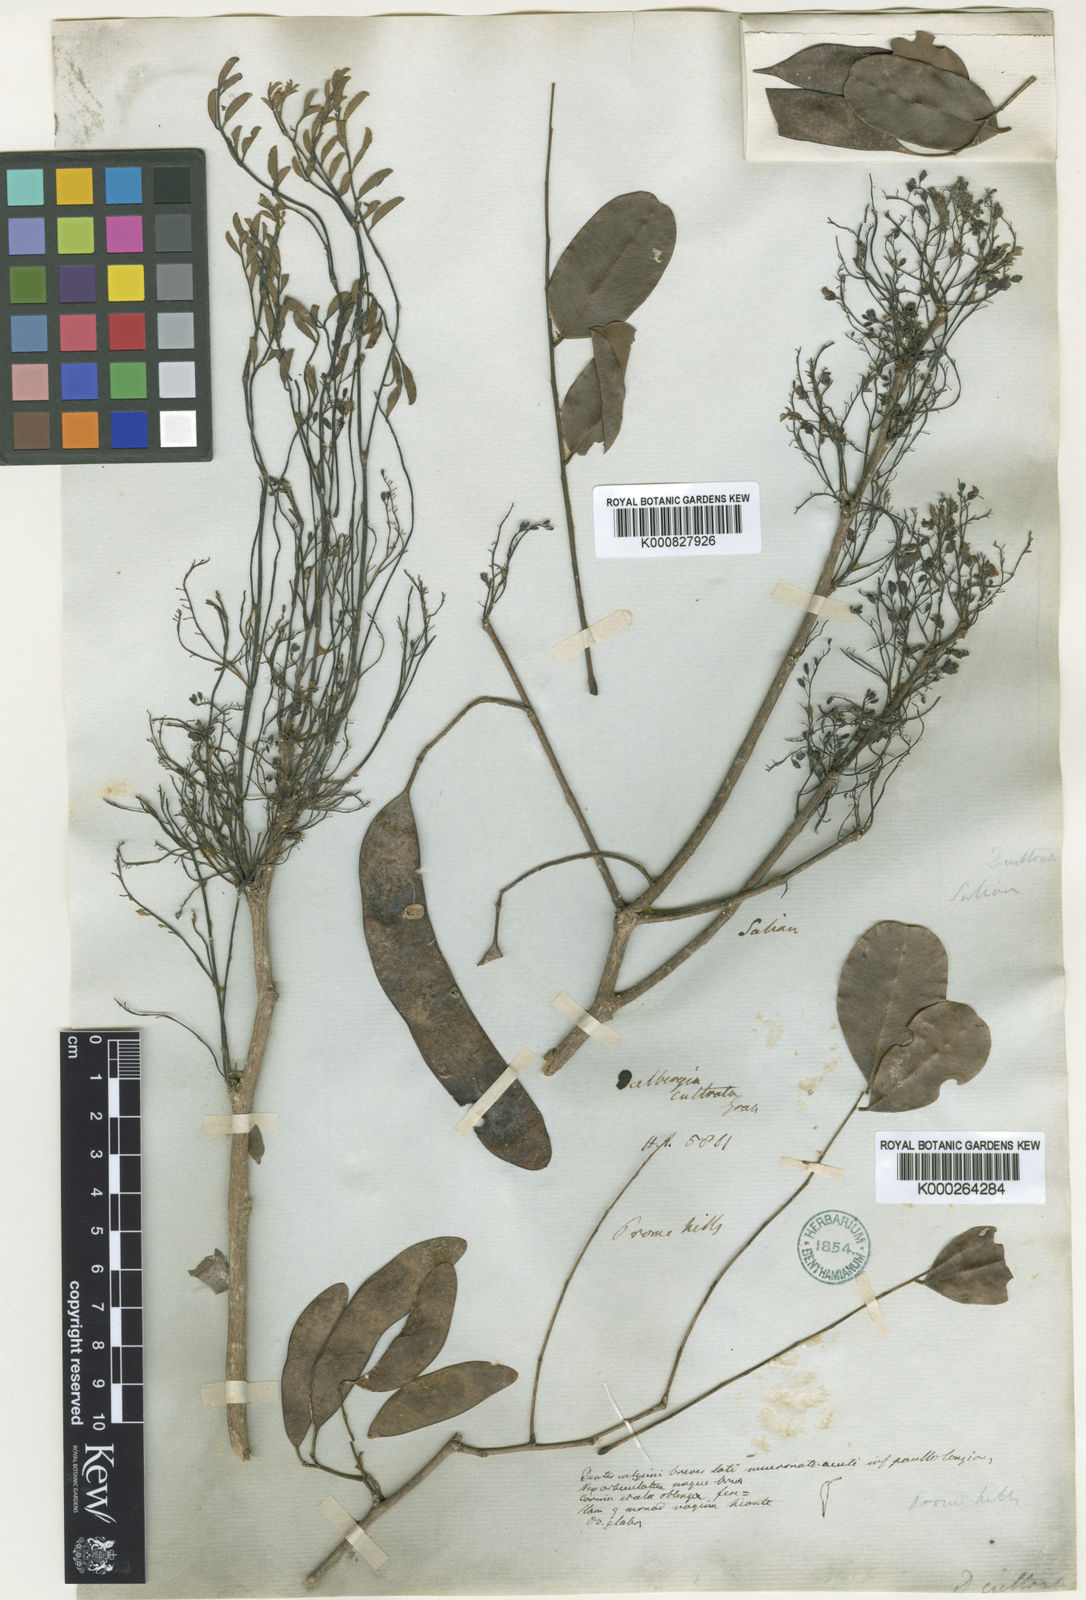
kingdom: Plantae
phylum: Tracheophyta
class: Magnoliopsida
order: Fabales
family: Fabaceae
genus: Dalbergia
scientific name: Dalbergia
